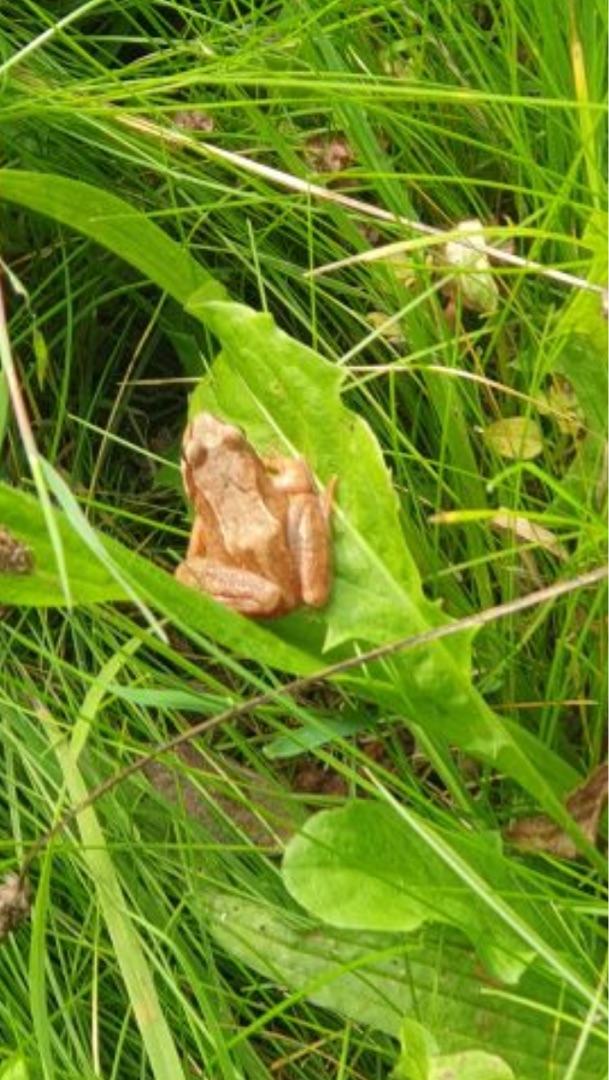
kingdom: Animalia
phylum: Chordata
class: Amphibia
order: Anura
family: Ranidae
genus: Rana
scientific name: Rana temporaria
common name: Butsnudet frø
